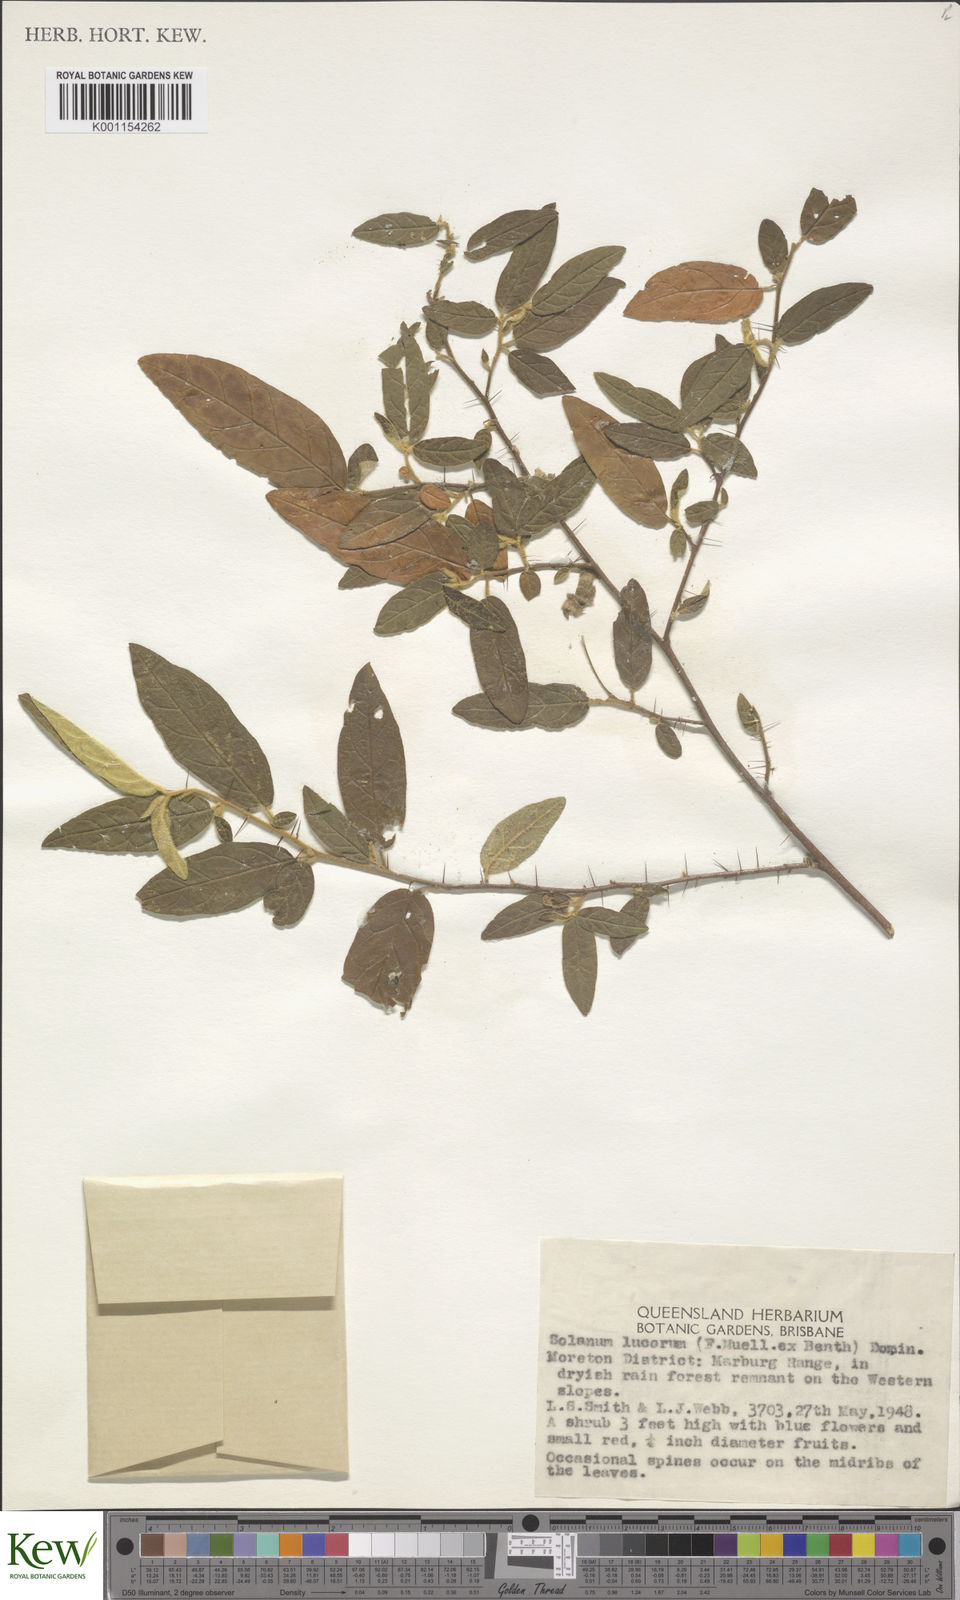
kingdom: Plantae
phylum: Tracheophyta
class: Magnoliopsida
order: Solanales
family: Solanaceae
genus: Solanum
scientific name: Solanum stelligerum
